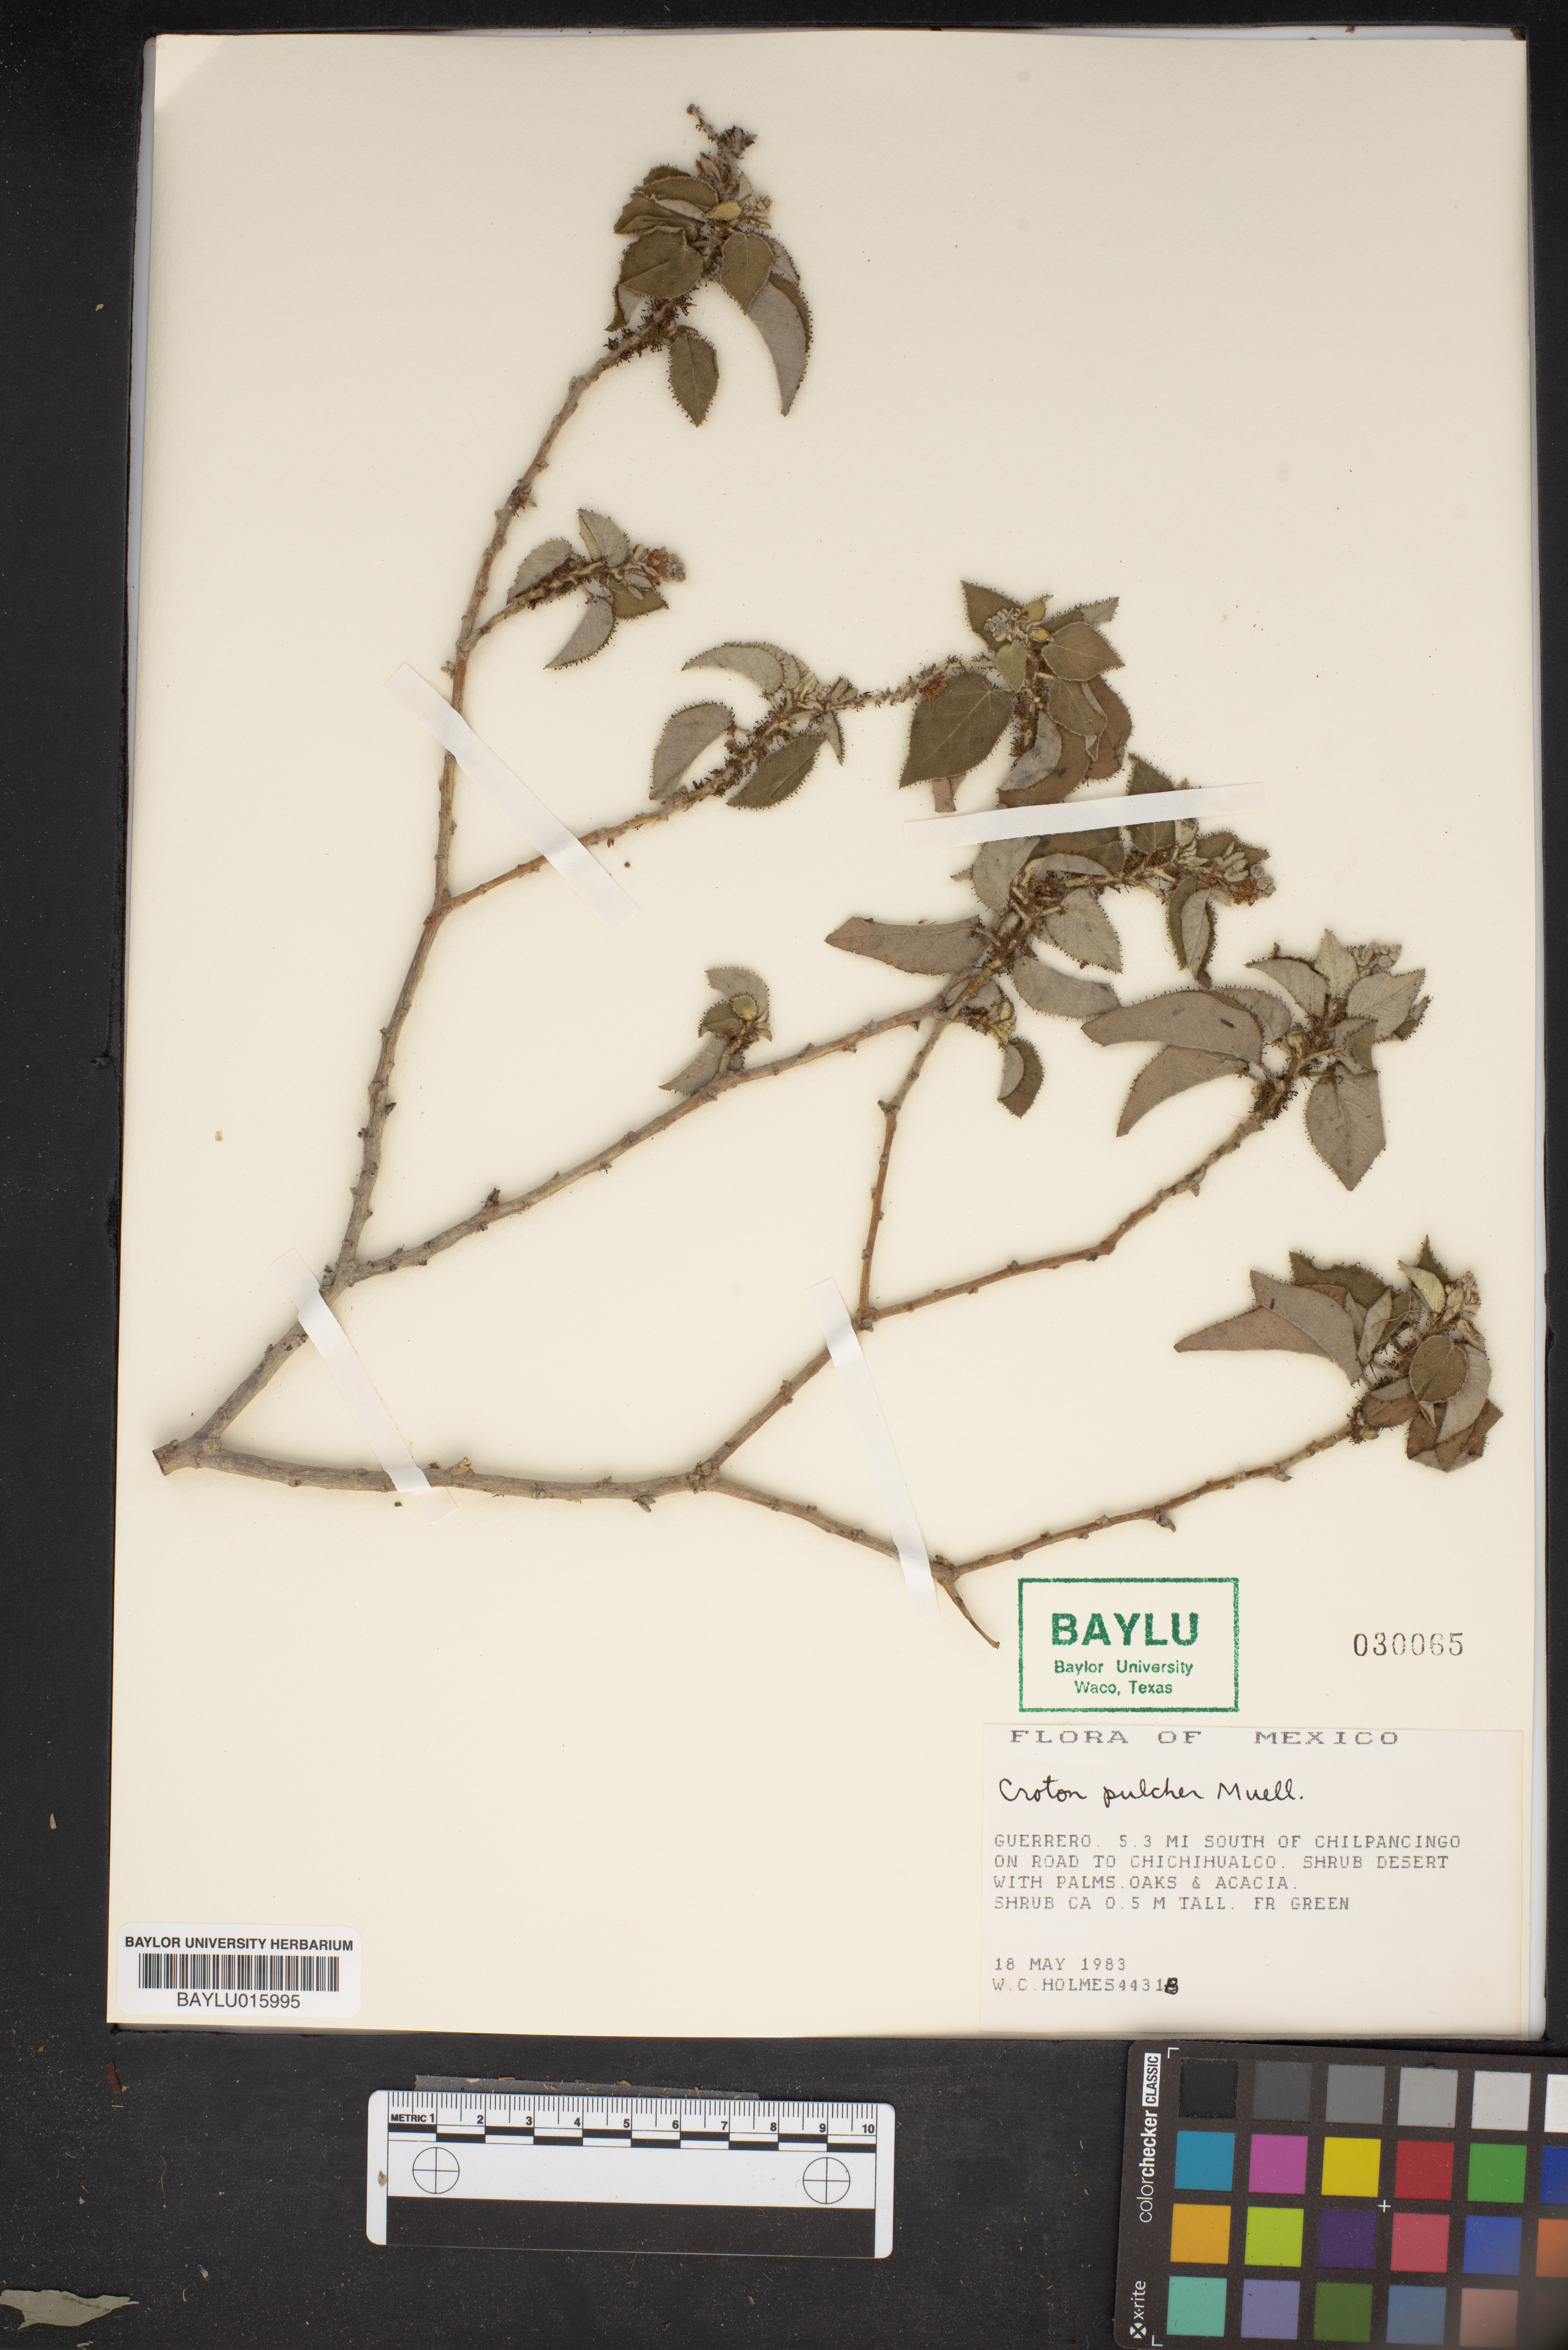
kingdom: Plantae
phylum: Tracheophyta
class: Magnoliopsida
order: Malpighiales
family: Euphorbiaceae
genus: Croton
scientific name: Croton pulcher
